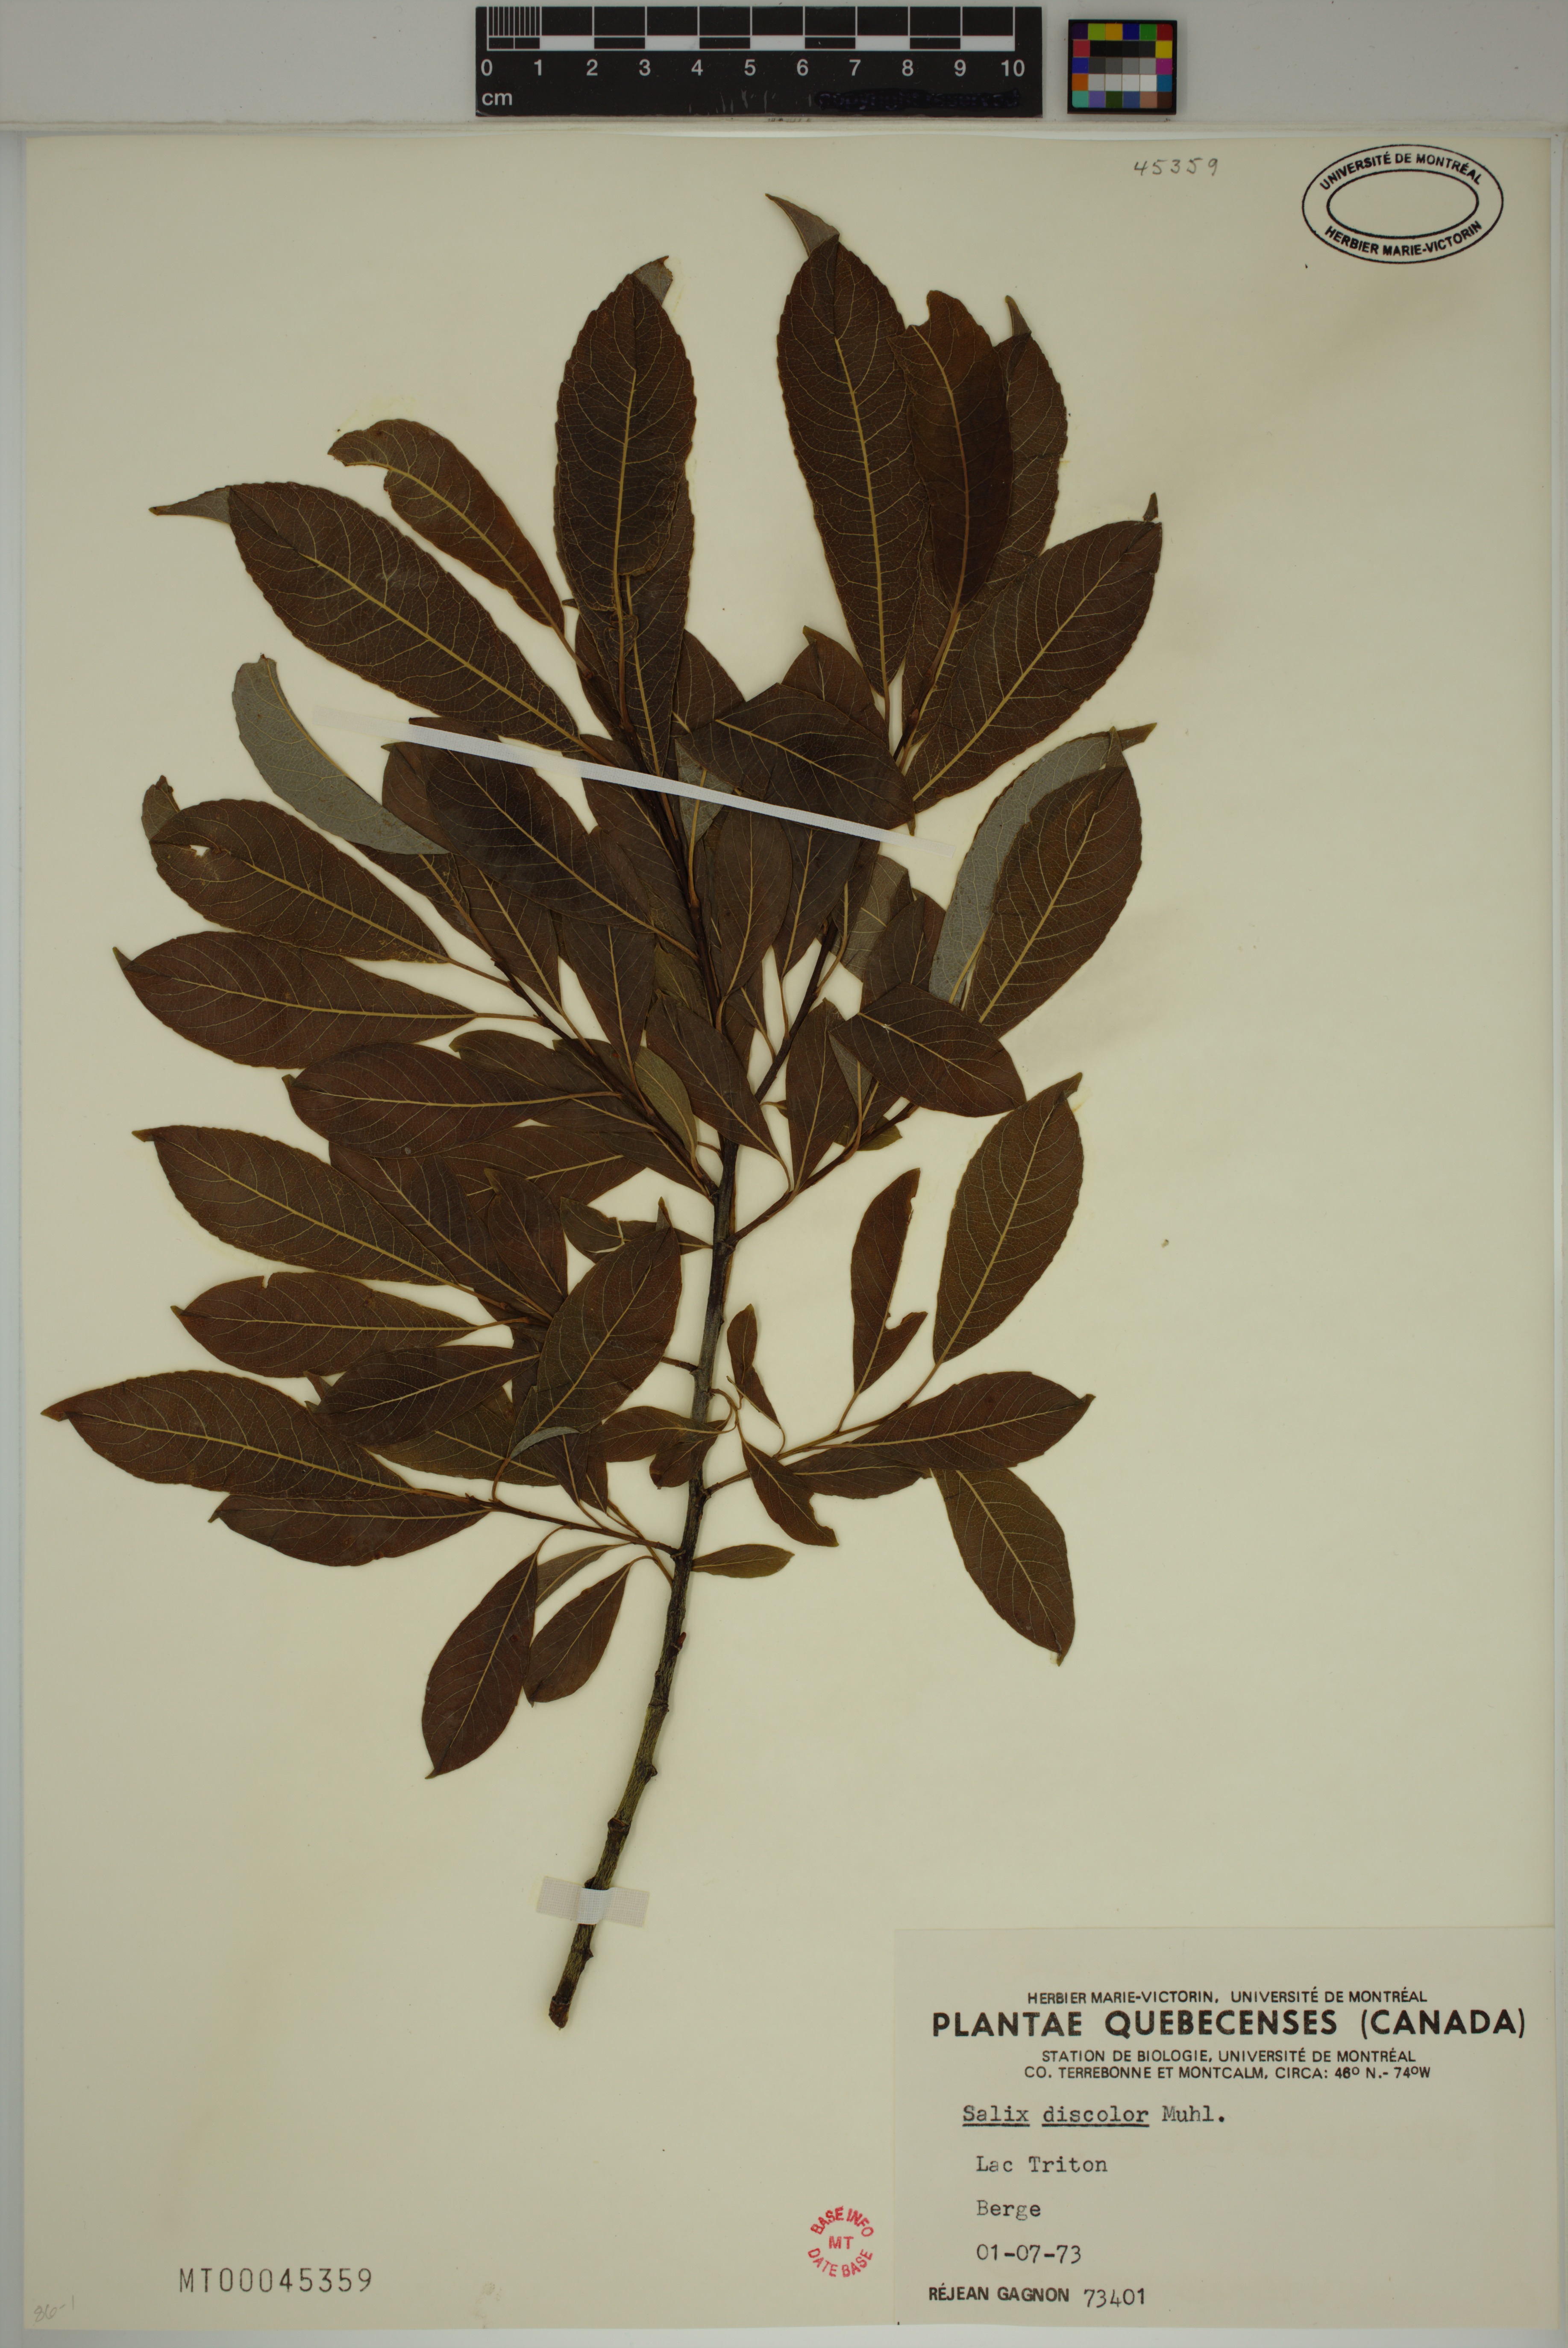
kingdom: Plantae
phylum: Tracheophyta
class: Magnoliopsida
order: Malpighiales
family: Salicaceae
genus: Salix
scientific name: Salix discolor
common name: Glaucous willow
